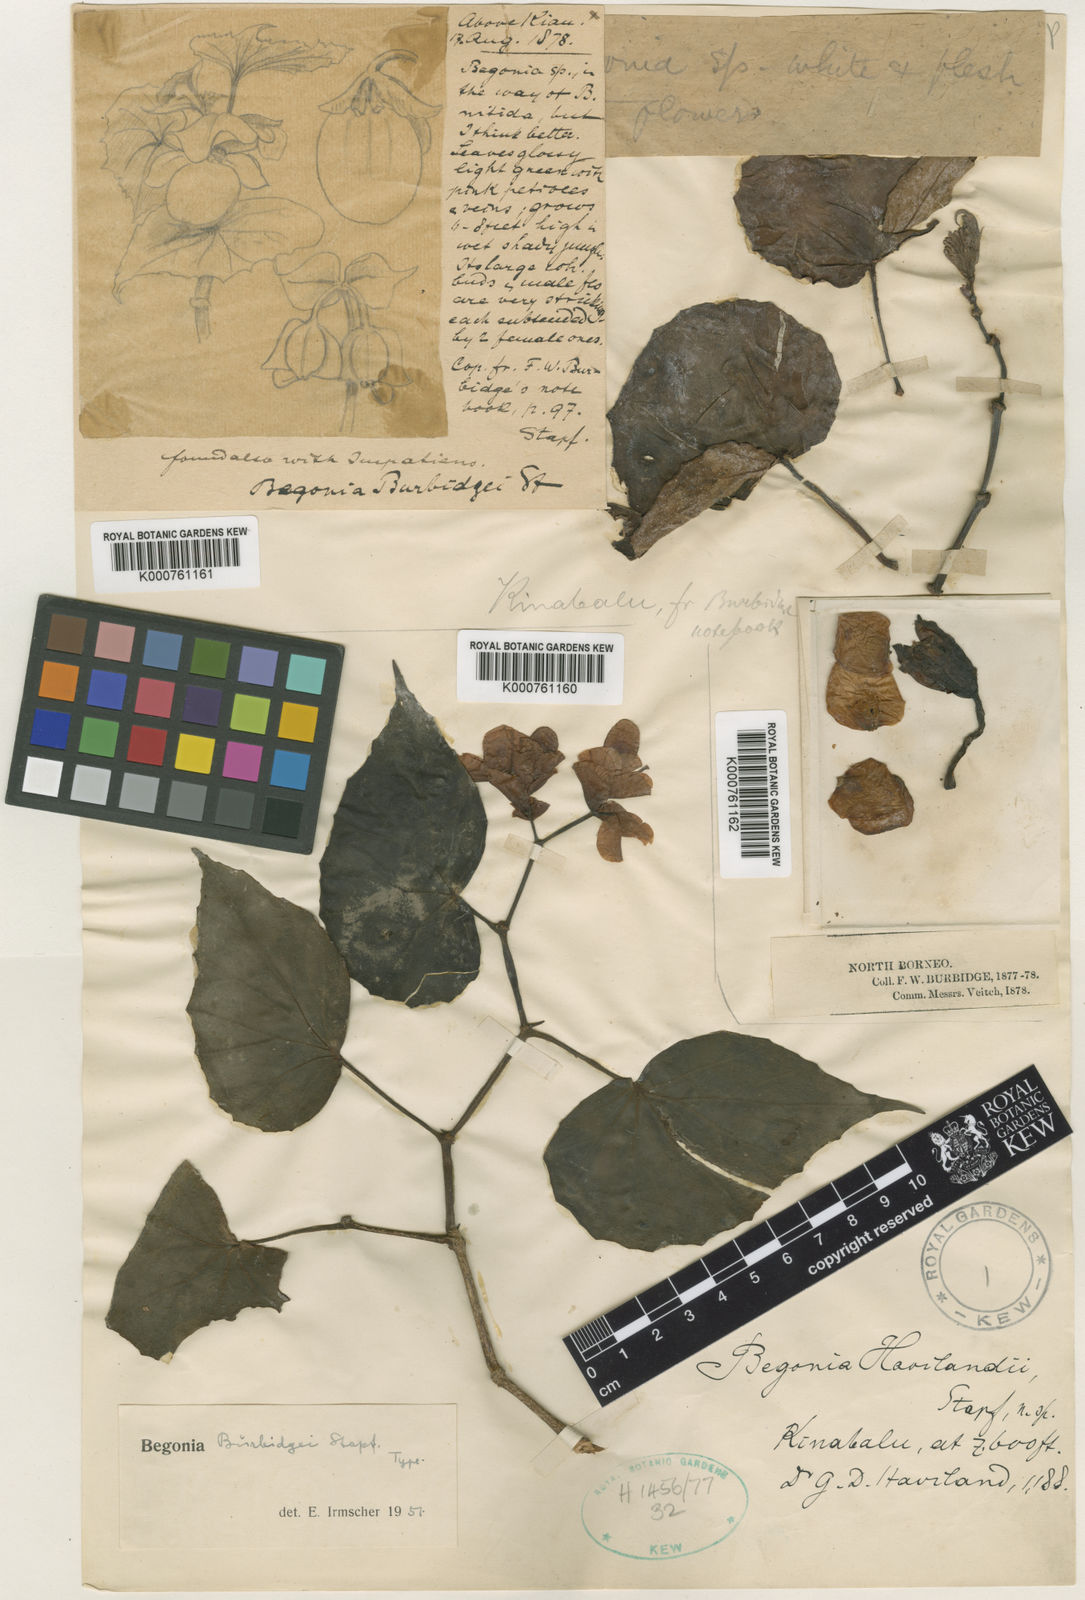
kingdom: Plantae
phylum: Tracheophyta
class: Magnoliopsida
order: Cucurbitales
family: Begoniaceae
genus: Begonia
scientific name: Begonia burbidgei
